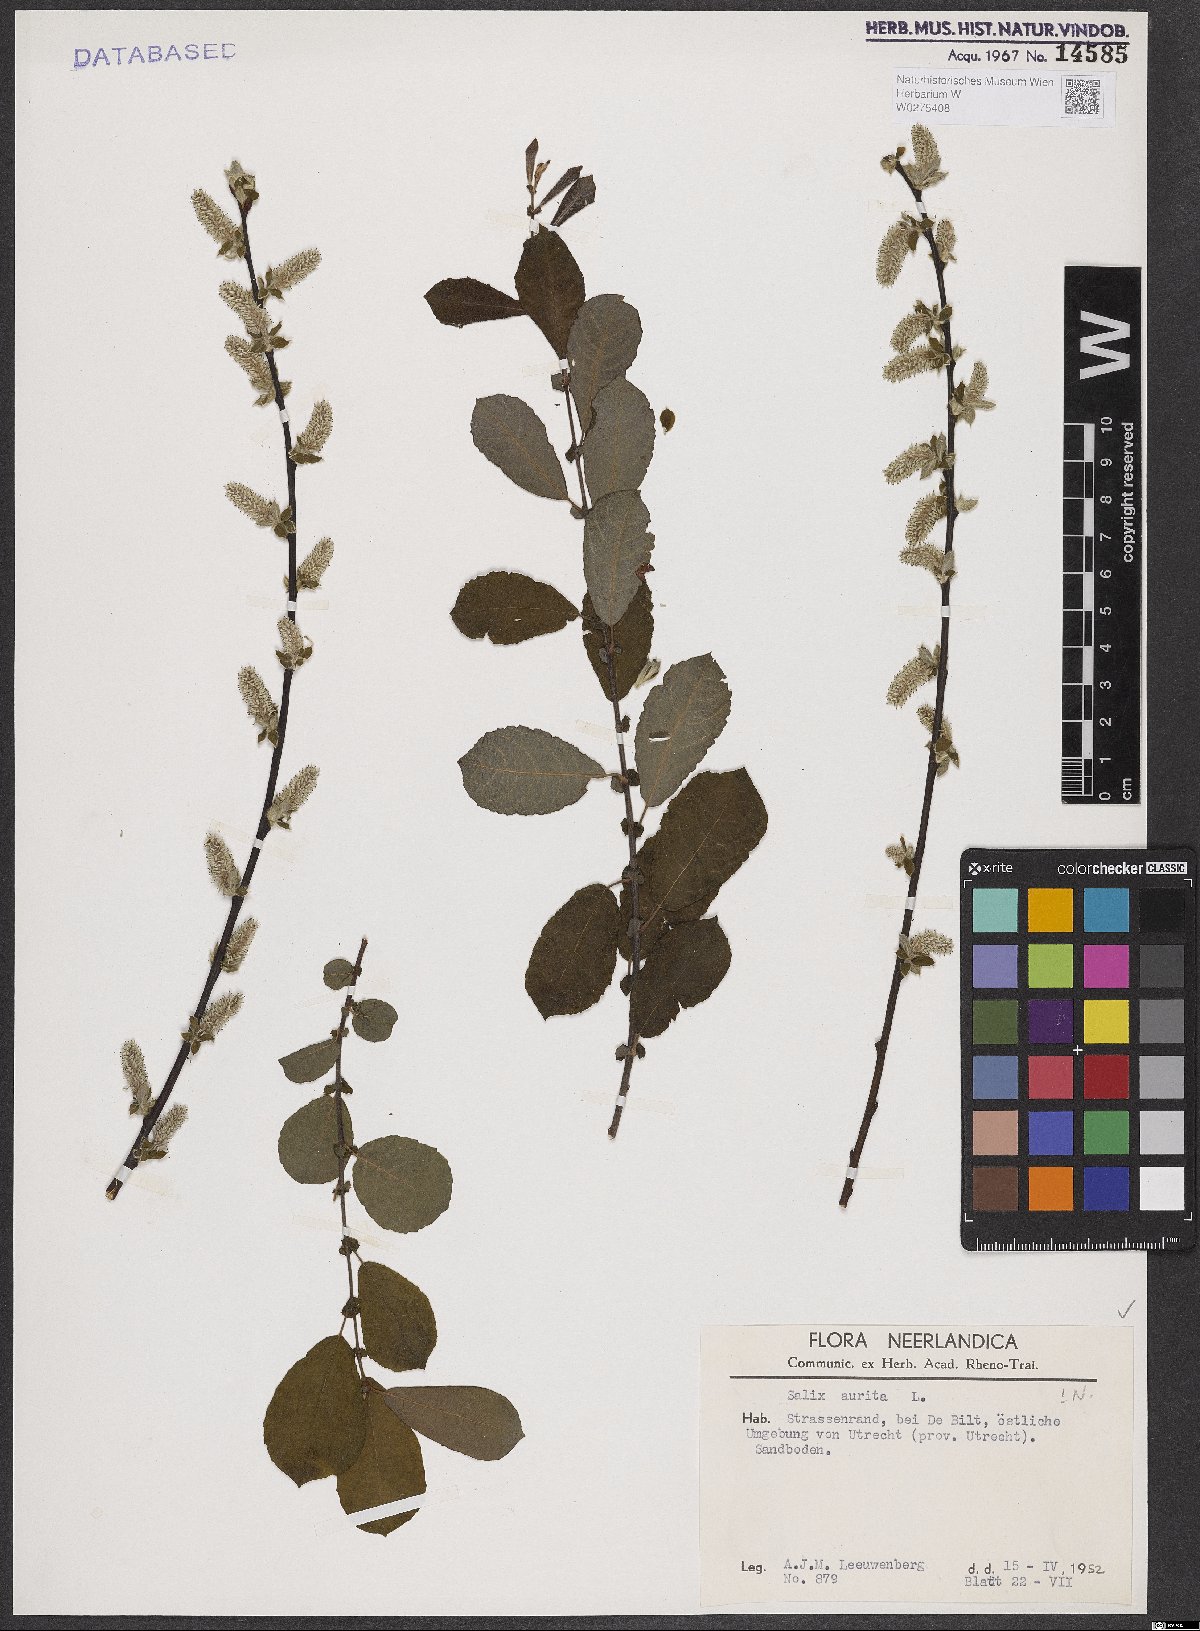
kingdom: Plantae
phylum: Tracheophyta
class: Magnoliopsida
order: Malpighiales
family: Salicaceae
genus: Salix
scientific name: Salix aurita
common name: Eared willow
